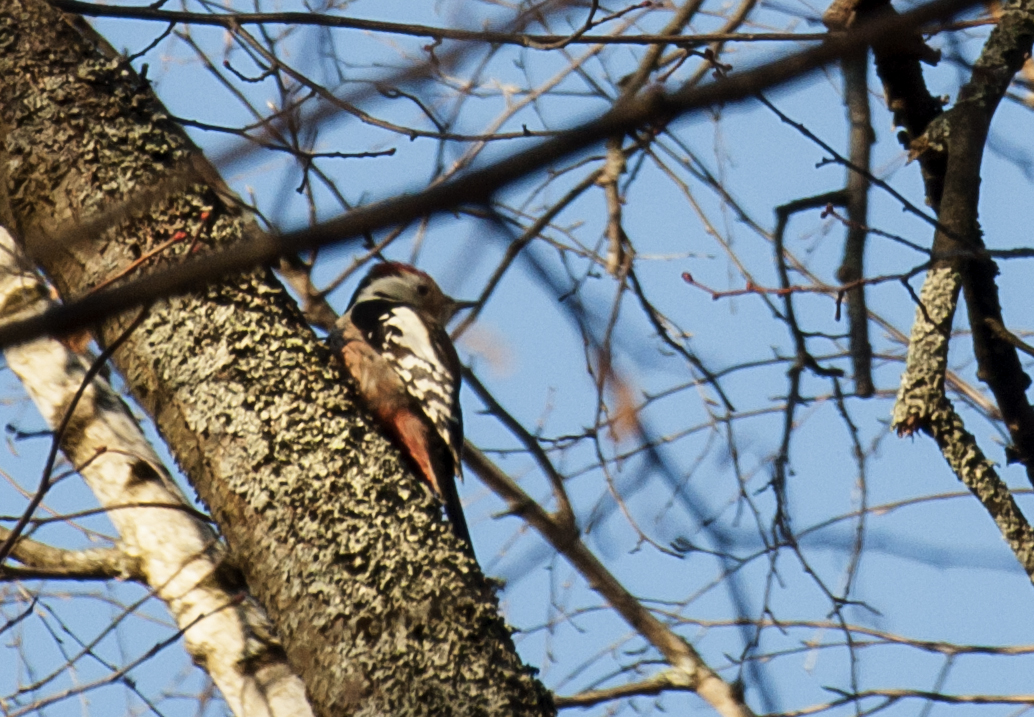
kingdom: Animalia
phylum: Chordata
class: Aves
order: Piciformes
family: Picidae
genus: Dendrocoptes
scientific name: Dendrocoptes medius
